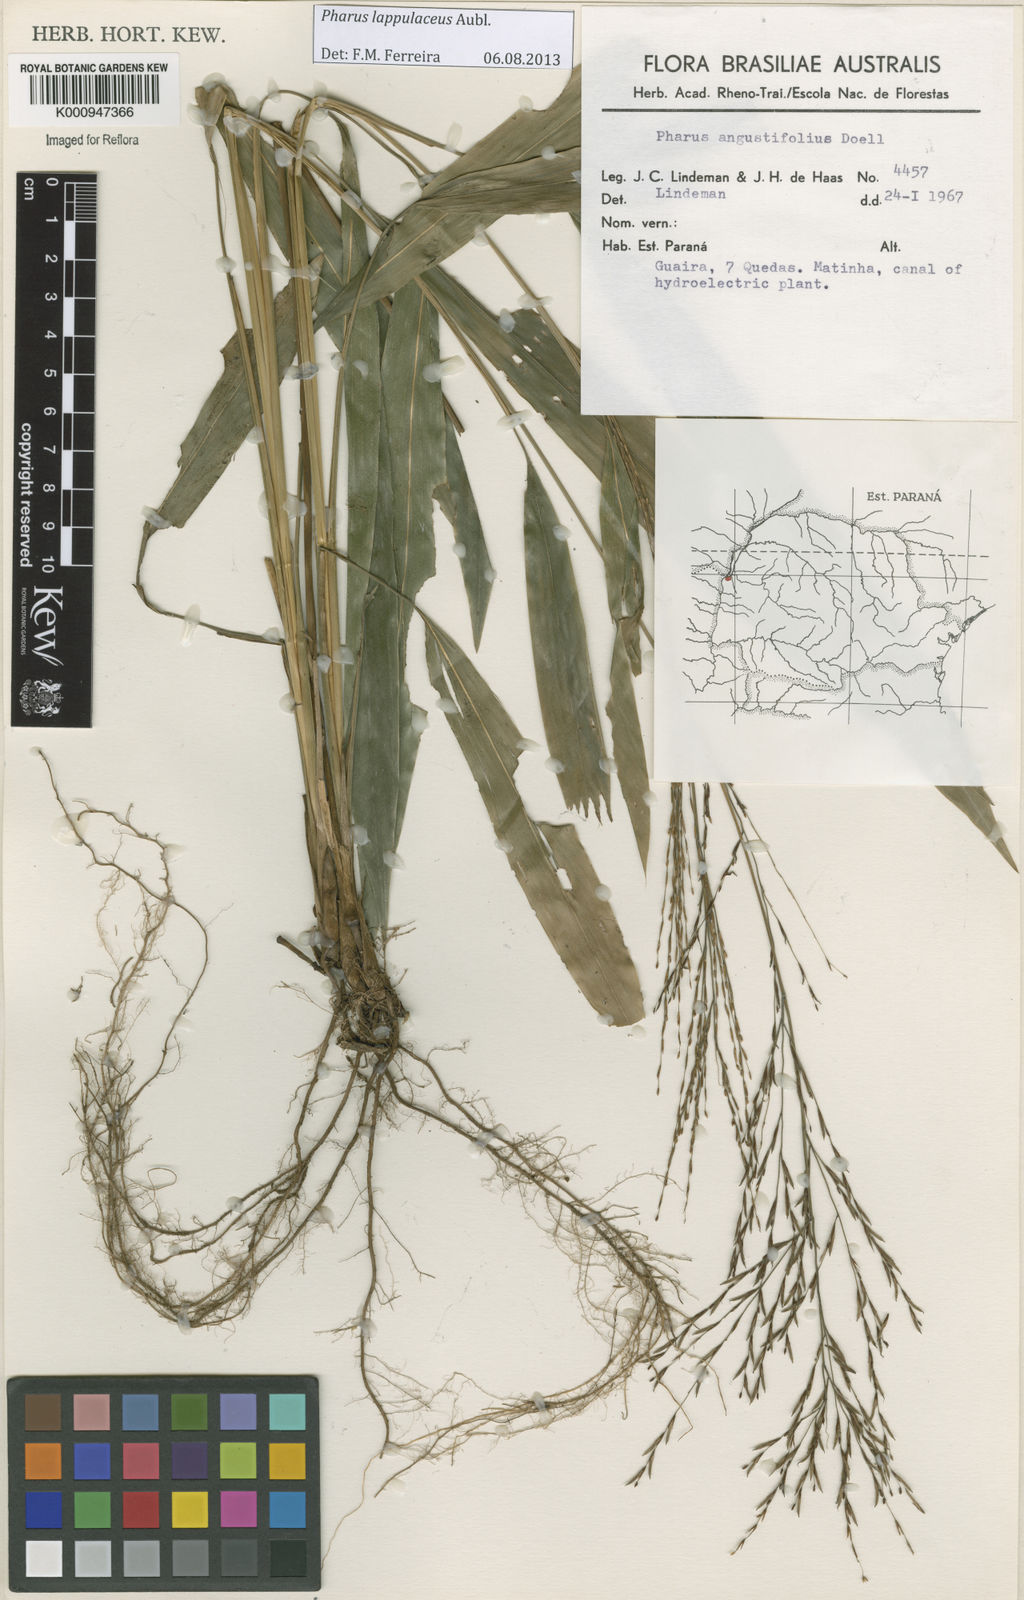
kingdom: Plantae
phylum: Tracheophyta
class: Liliopsida
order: Poales
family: Poaceae
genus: Pharus
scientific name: Pharus lappulaceus
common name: Creeping leafstalk grass
